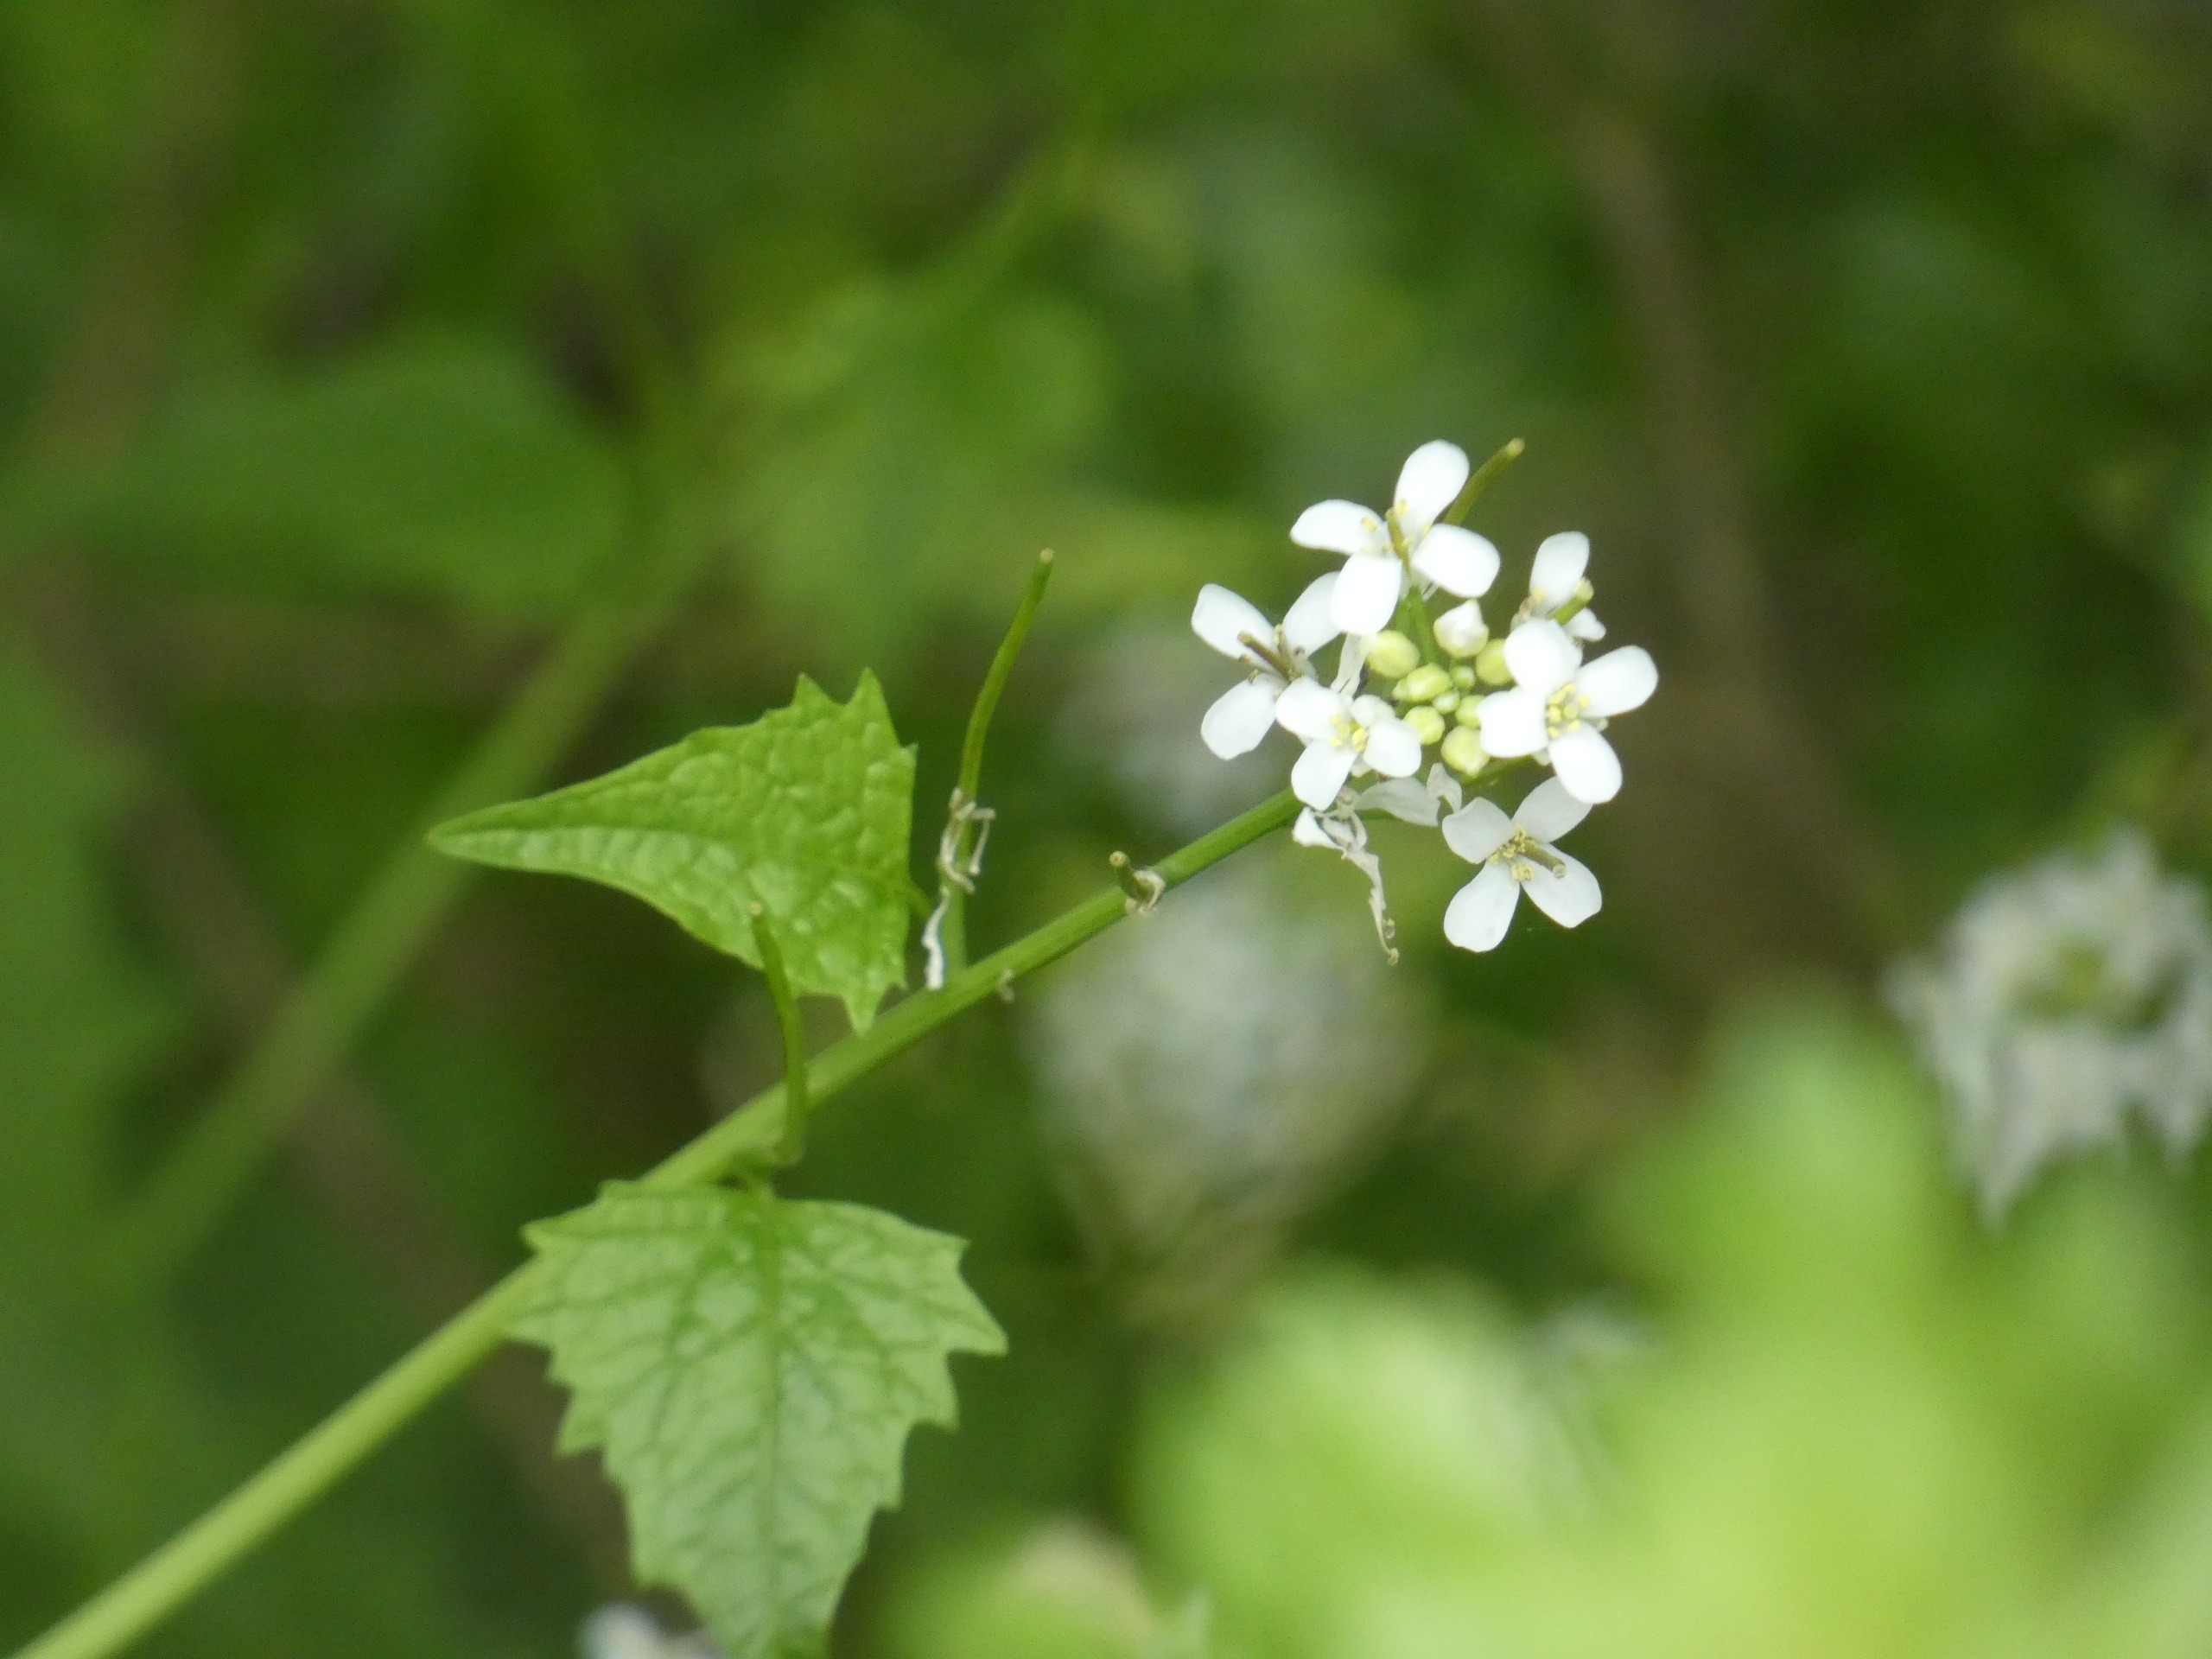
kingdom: Plantae
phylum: Tracheophyta
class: Magnoliopsida
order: Brassicales
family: Brassicaceae
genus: Alliaria
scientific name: Alliaria petiolata
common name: Løgkarse
